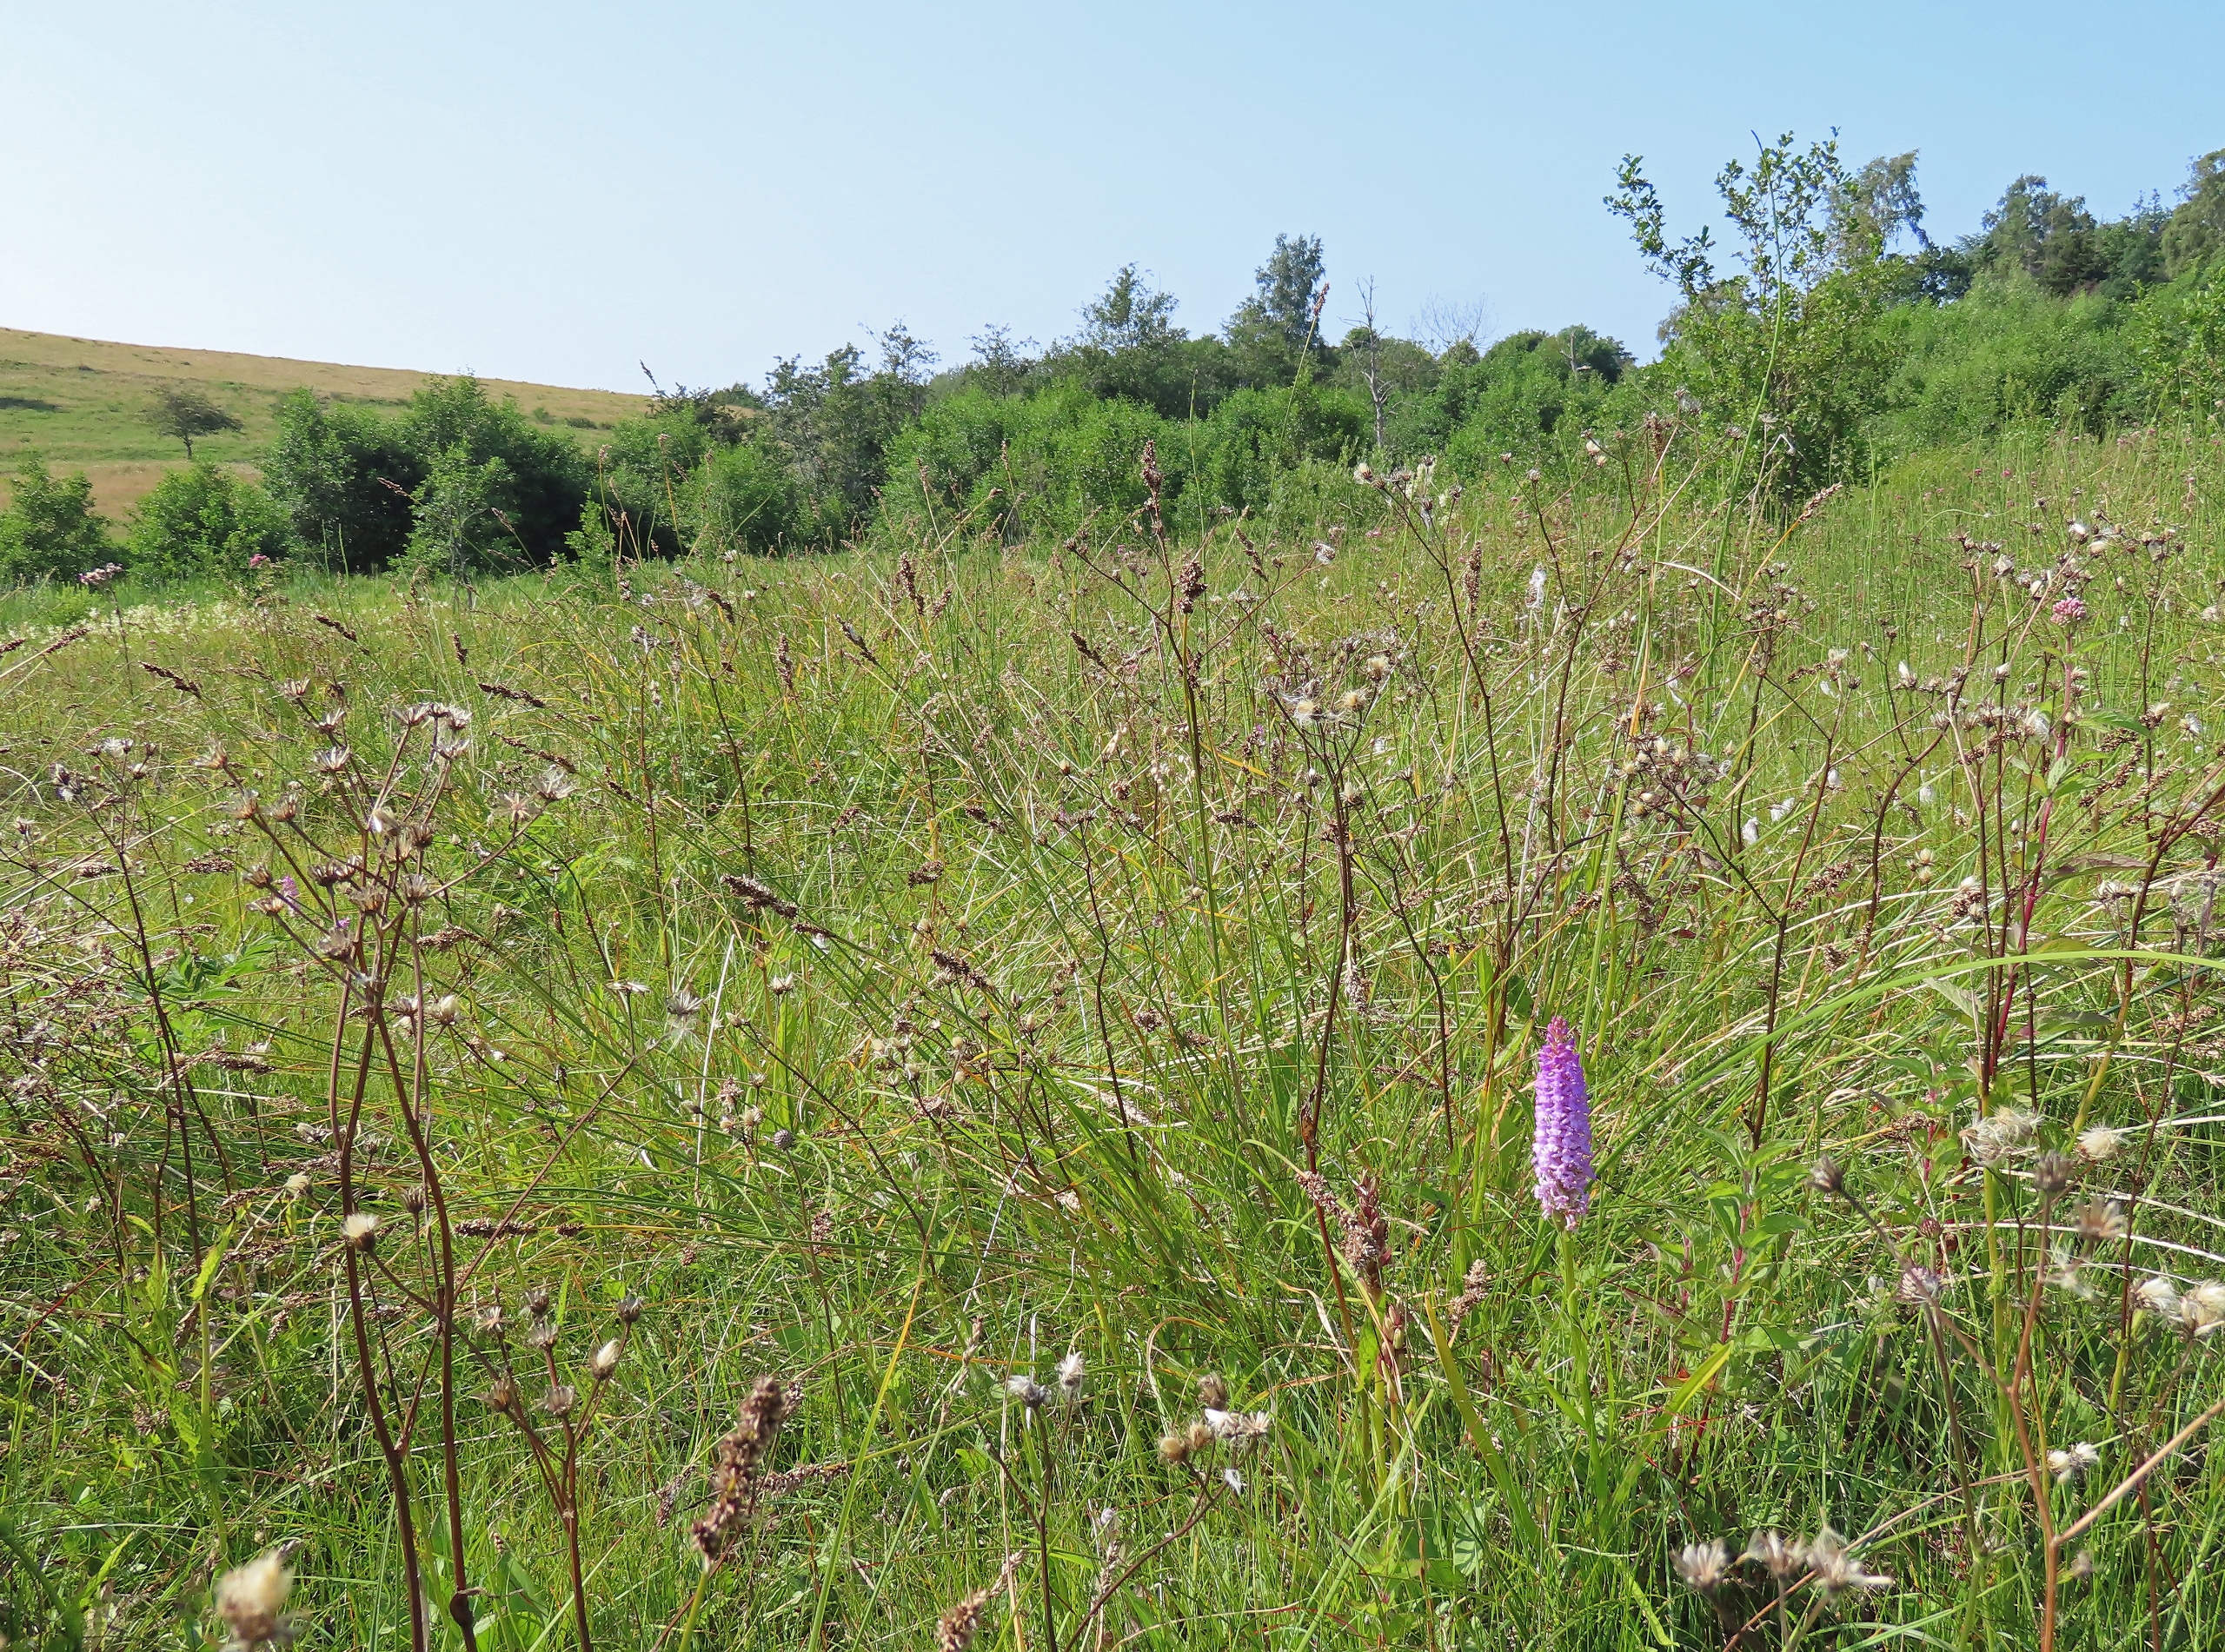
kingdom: Plantae
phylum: Tracheophyta
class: Liliopsida
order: Asparagales
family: Orchidaceae
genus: Gymnadenia
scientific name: Gymnadenia densiflora
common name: Tætblomstret trådspore
